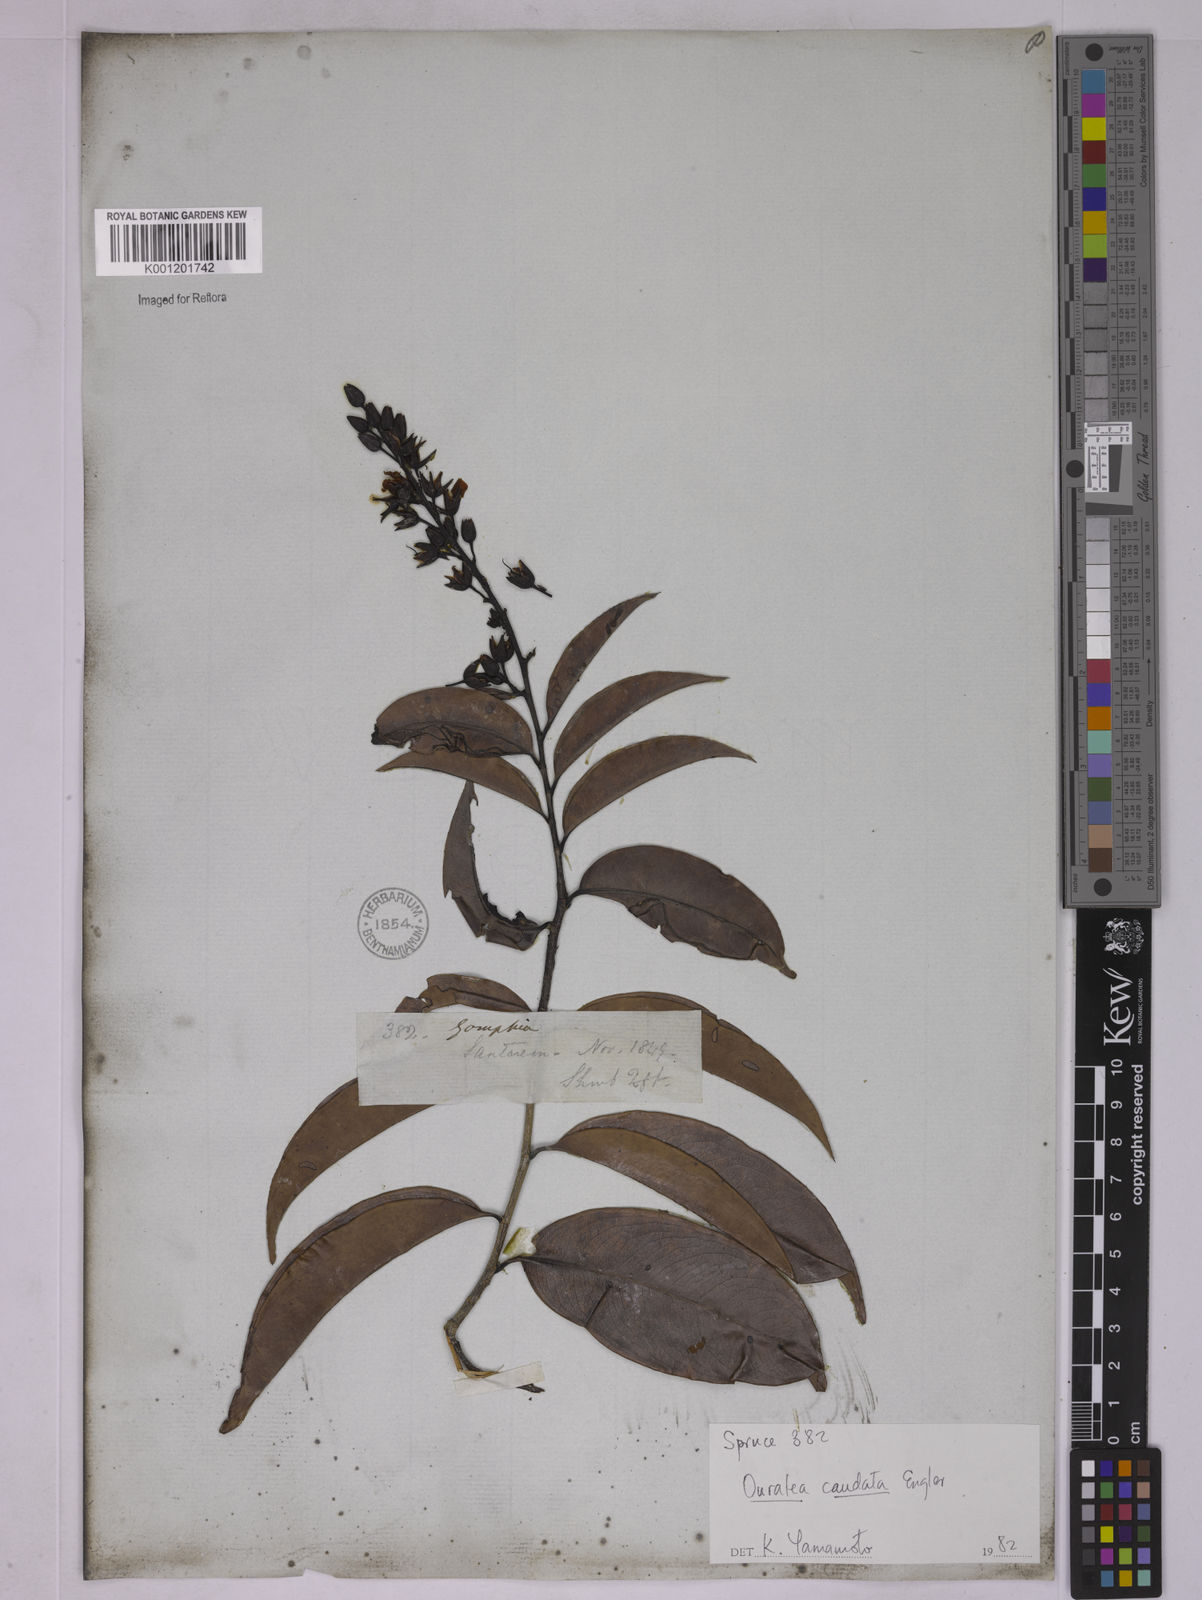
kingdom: Plantae
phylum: Tracheophyta
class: Magnoliopsida
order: Malpighiales
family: Ochnaceae
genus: Ouratea
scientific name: Ouratea caudata
